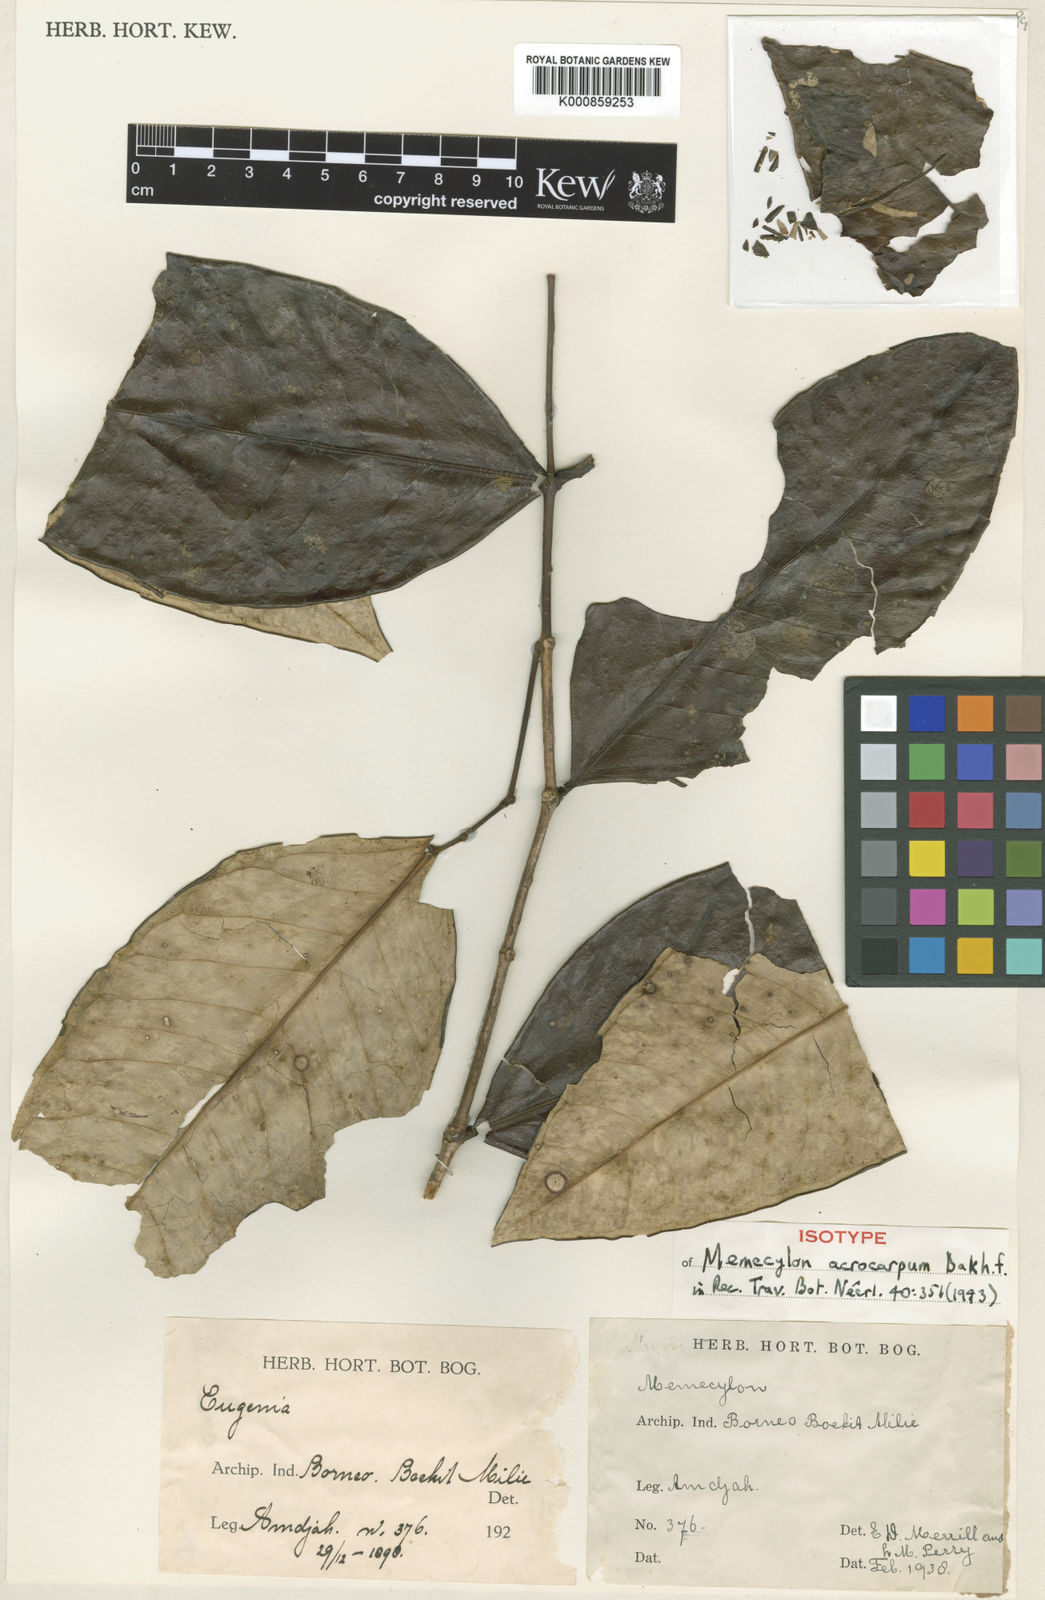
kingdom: Plantae
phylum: Tracheophyta
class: Magnoliopsida
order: Myrtales
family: Melastomataceae
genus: Memecylon
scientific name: Memecylon acrocarpum
